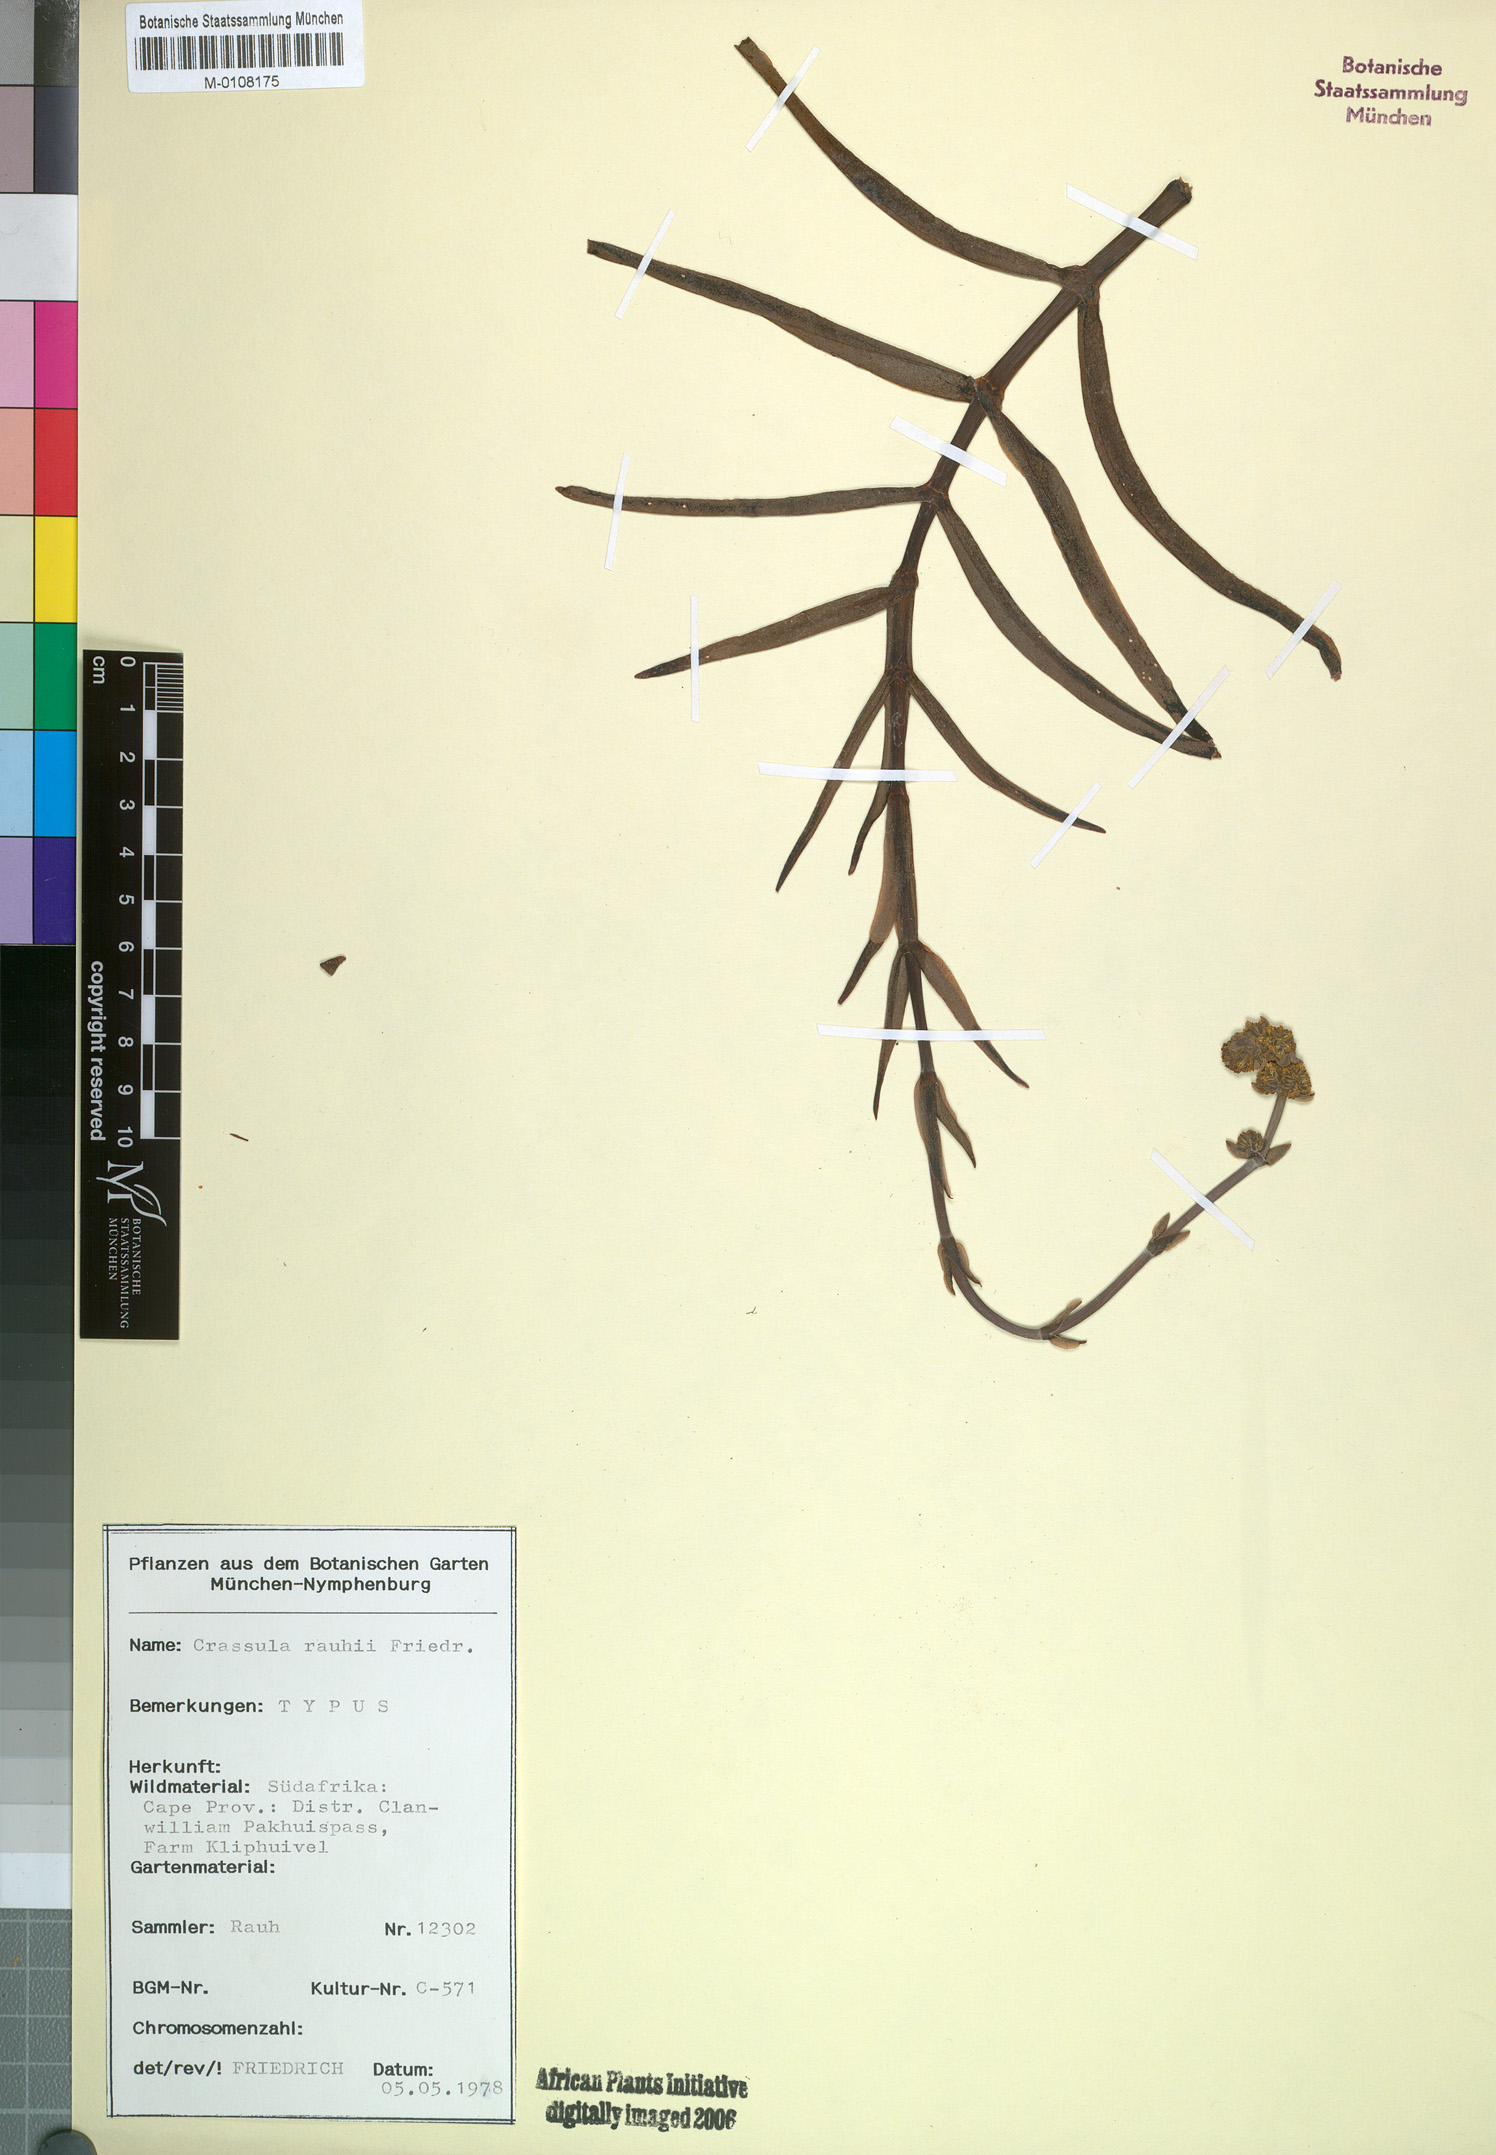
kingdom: Plantae
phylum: Tracheophyta
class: Magnoliopsida
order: Saxifragales
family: Crassulaceae
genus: Crassula
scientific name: Crassula subacaulis
